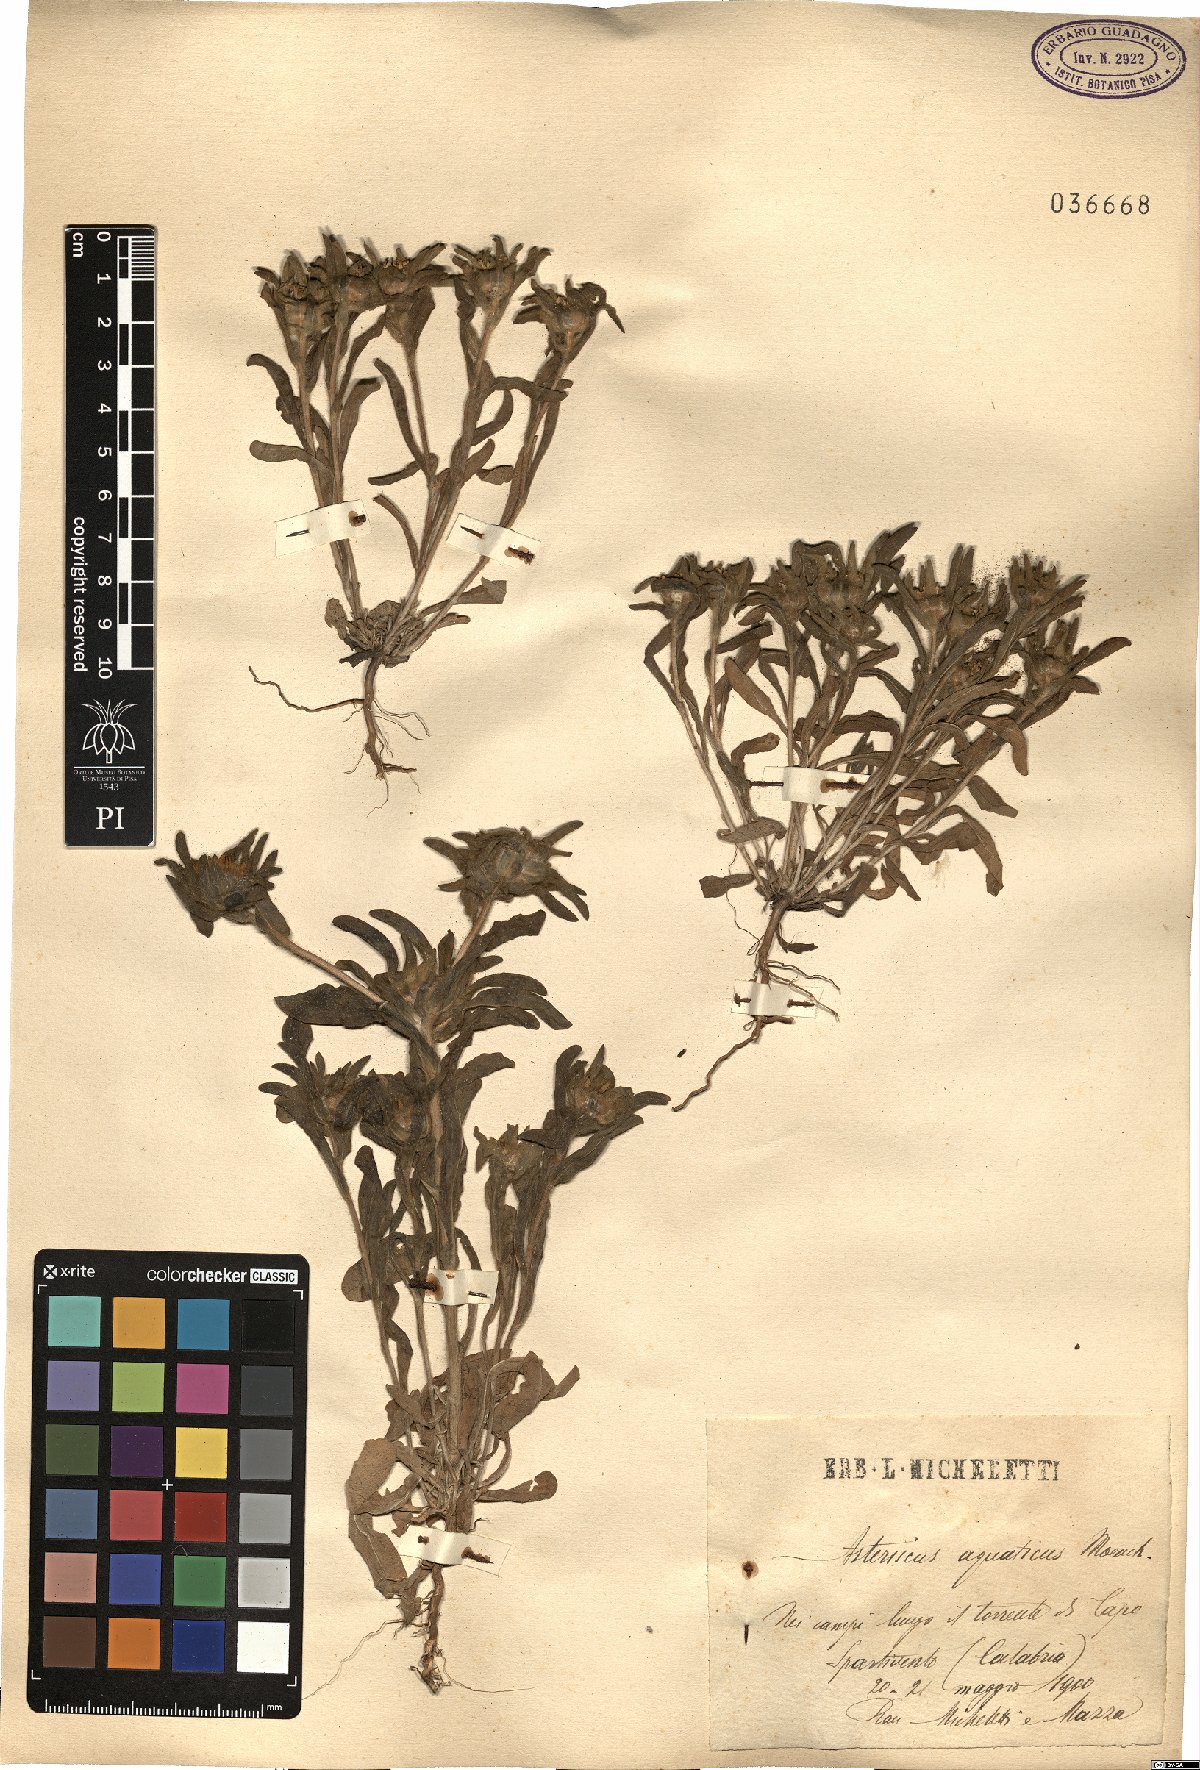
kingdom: Plantae
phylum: Tracheophyta
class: Magnoliopsida
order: Asterales
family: Asteraceae
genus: Asteriscus
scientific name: Asteriscus aquaticus
